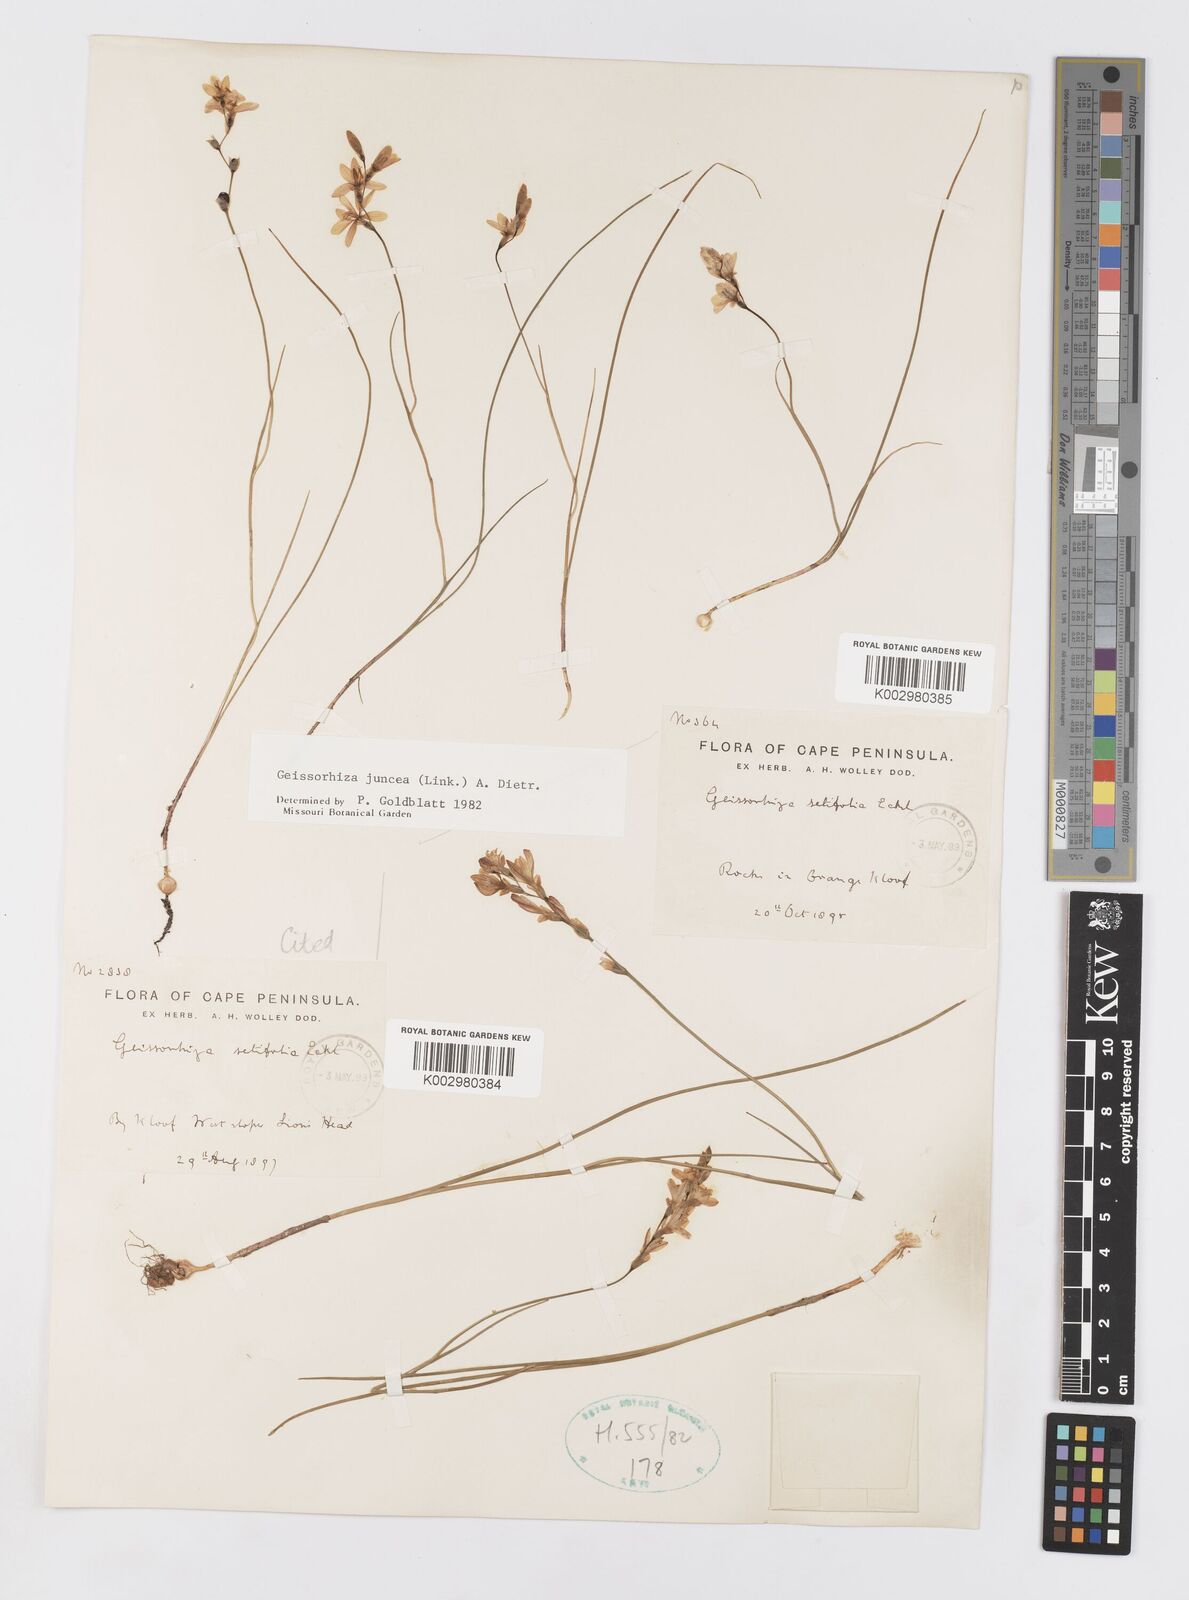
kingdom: Plantae
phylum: Tracheophyta
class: Liliopsida
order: Asparagales
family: Iridaceae
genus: Geissorhiza
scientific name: Geissorhiza juncea
